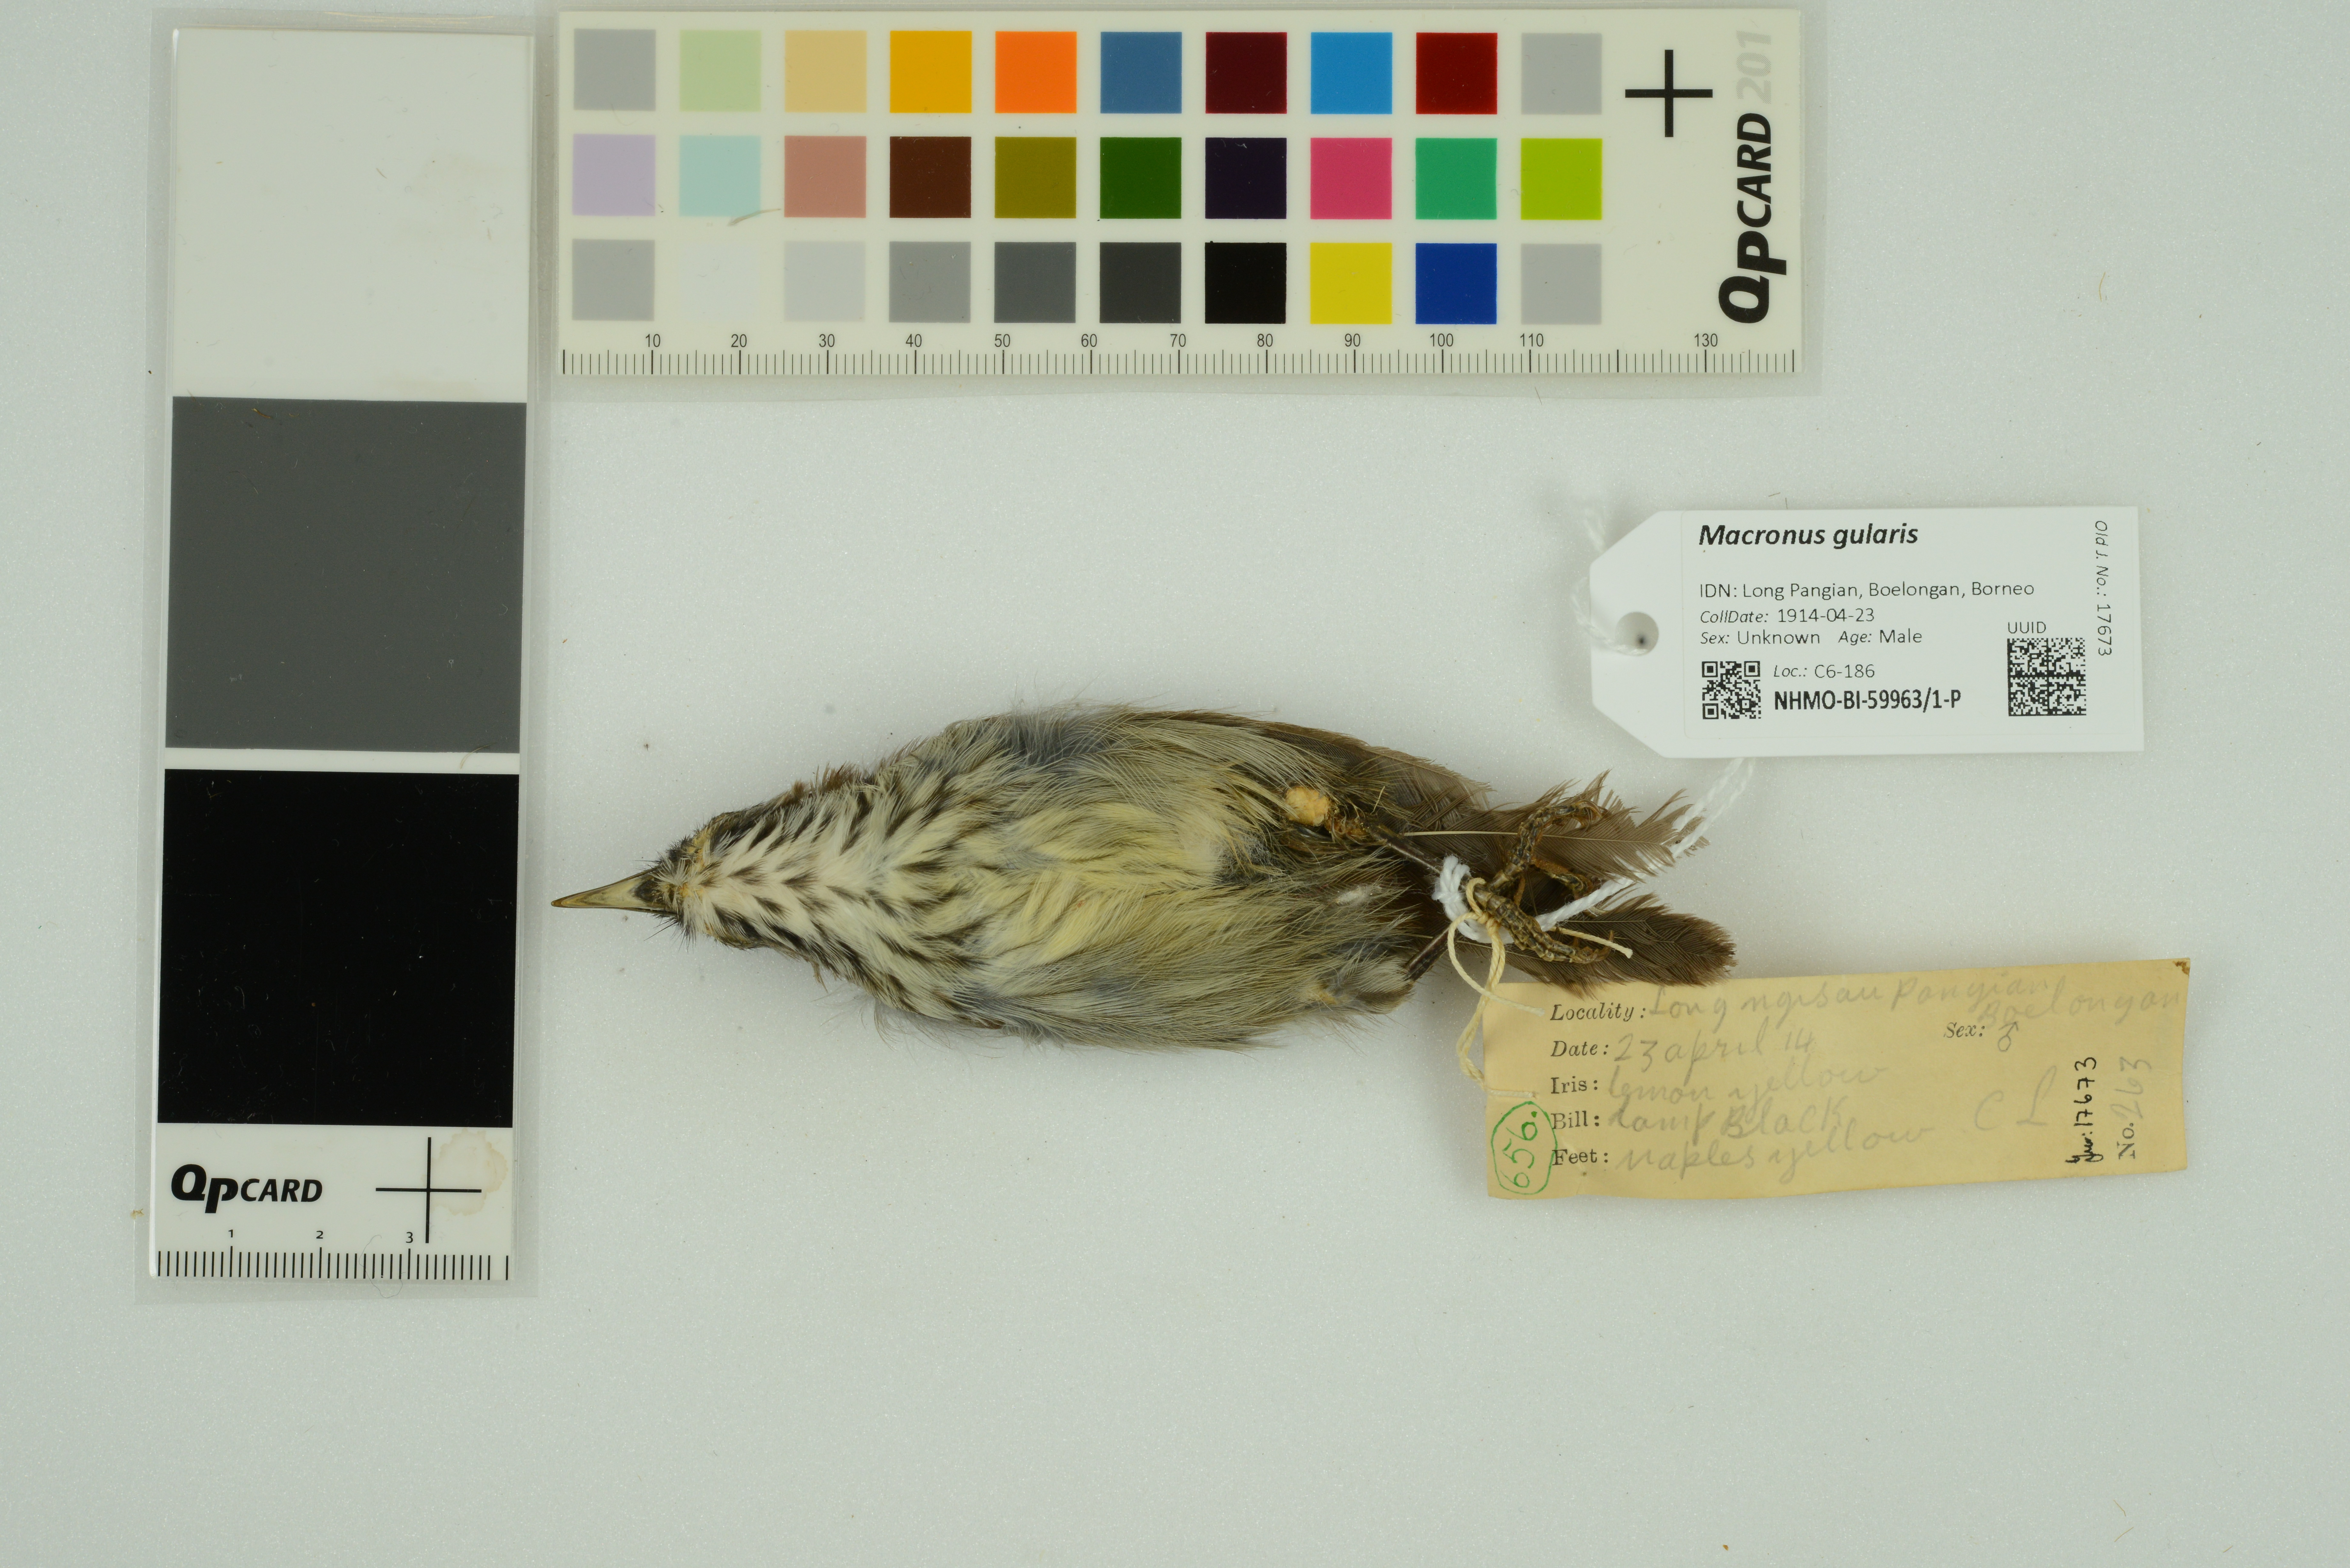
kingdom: Animalia
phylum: Chordata
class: Aves
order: Passeriformes
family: Timaliidae
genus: Macronus
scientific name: Macronus gularis
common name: Striped tit-babbler
